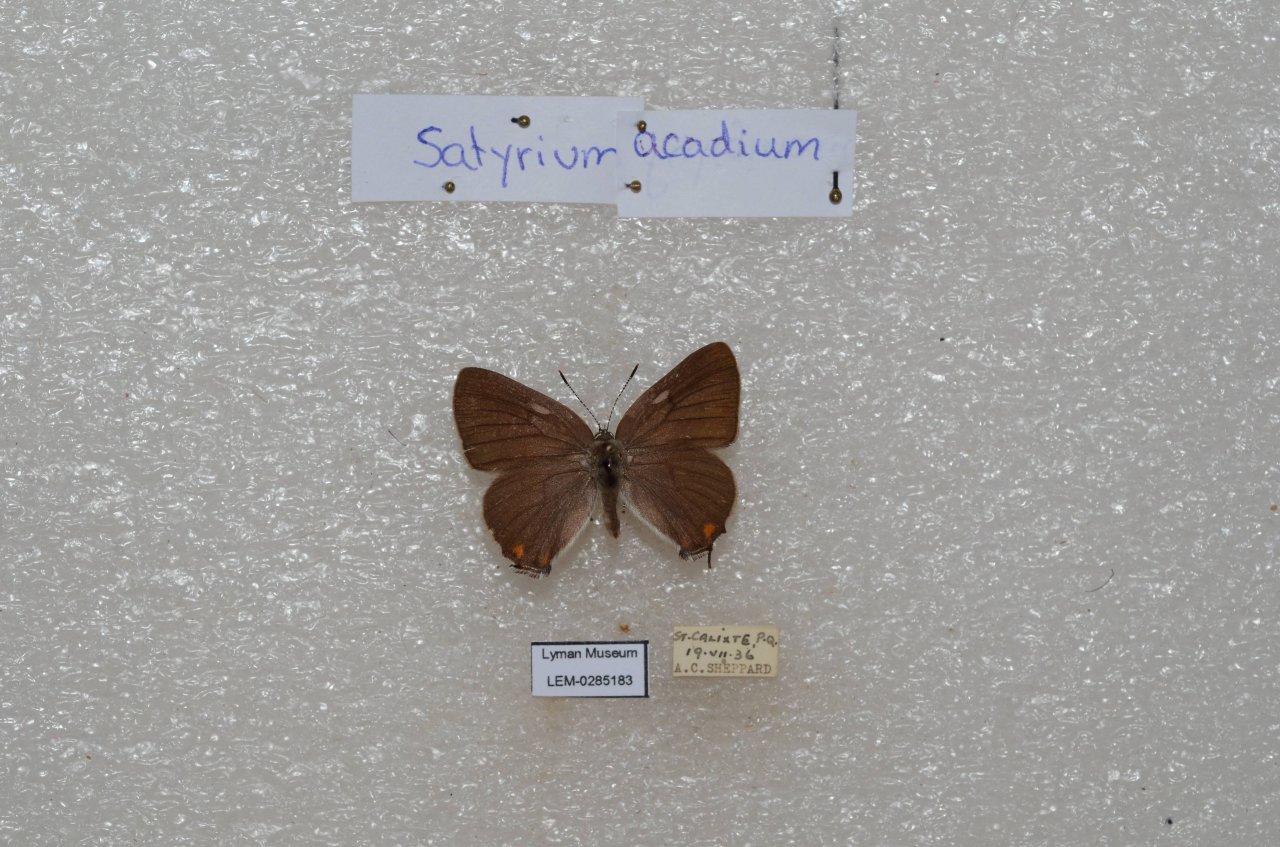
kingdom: Animalia
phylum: Arthropoda
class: Insecta
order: Lepidoptera
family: Lycaenidae
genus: Strymon
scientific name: Strymon acadica
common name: Acadian Hairstreak
